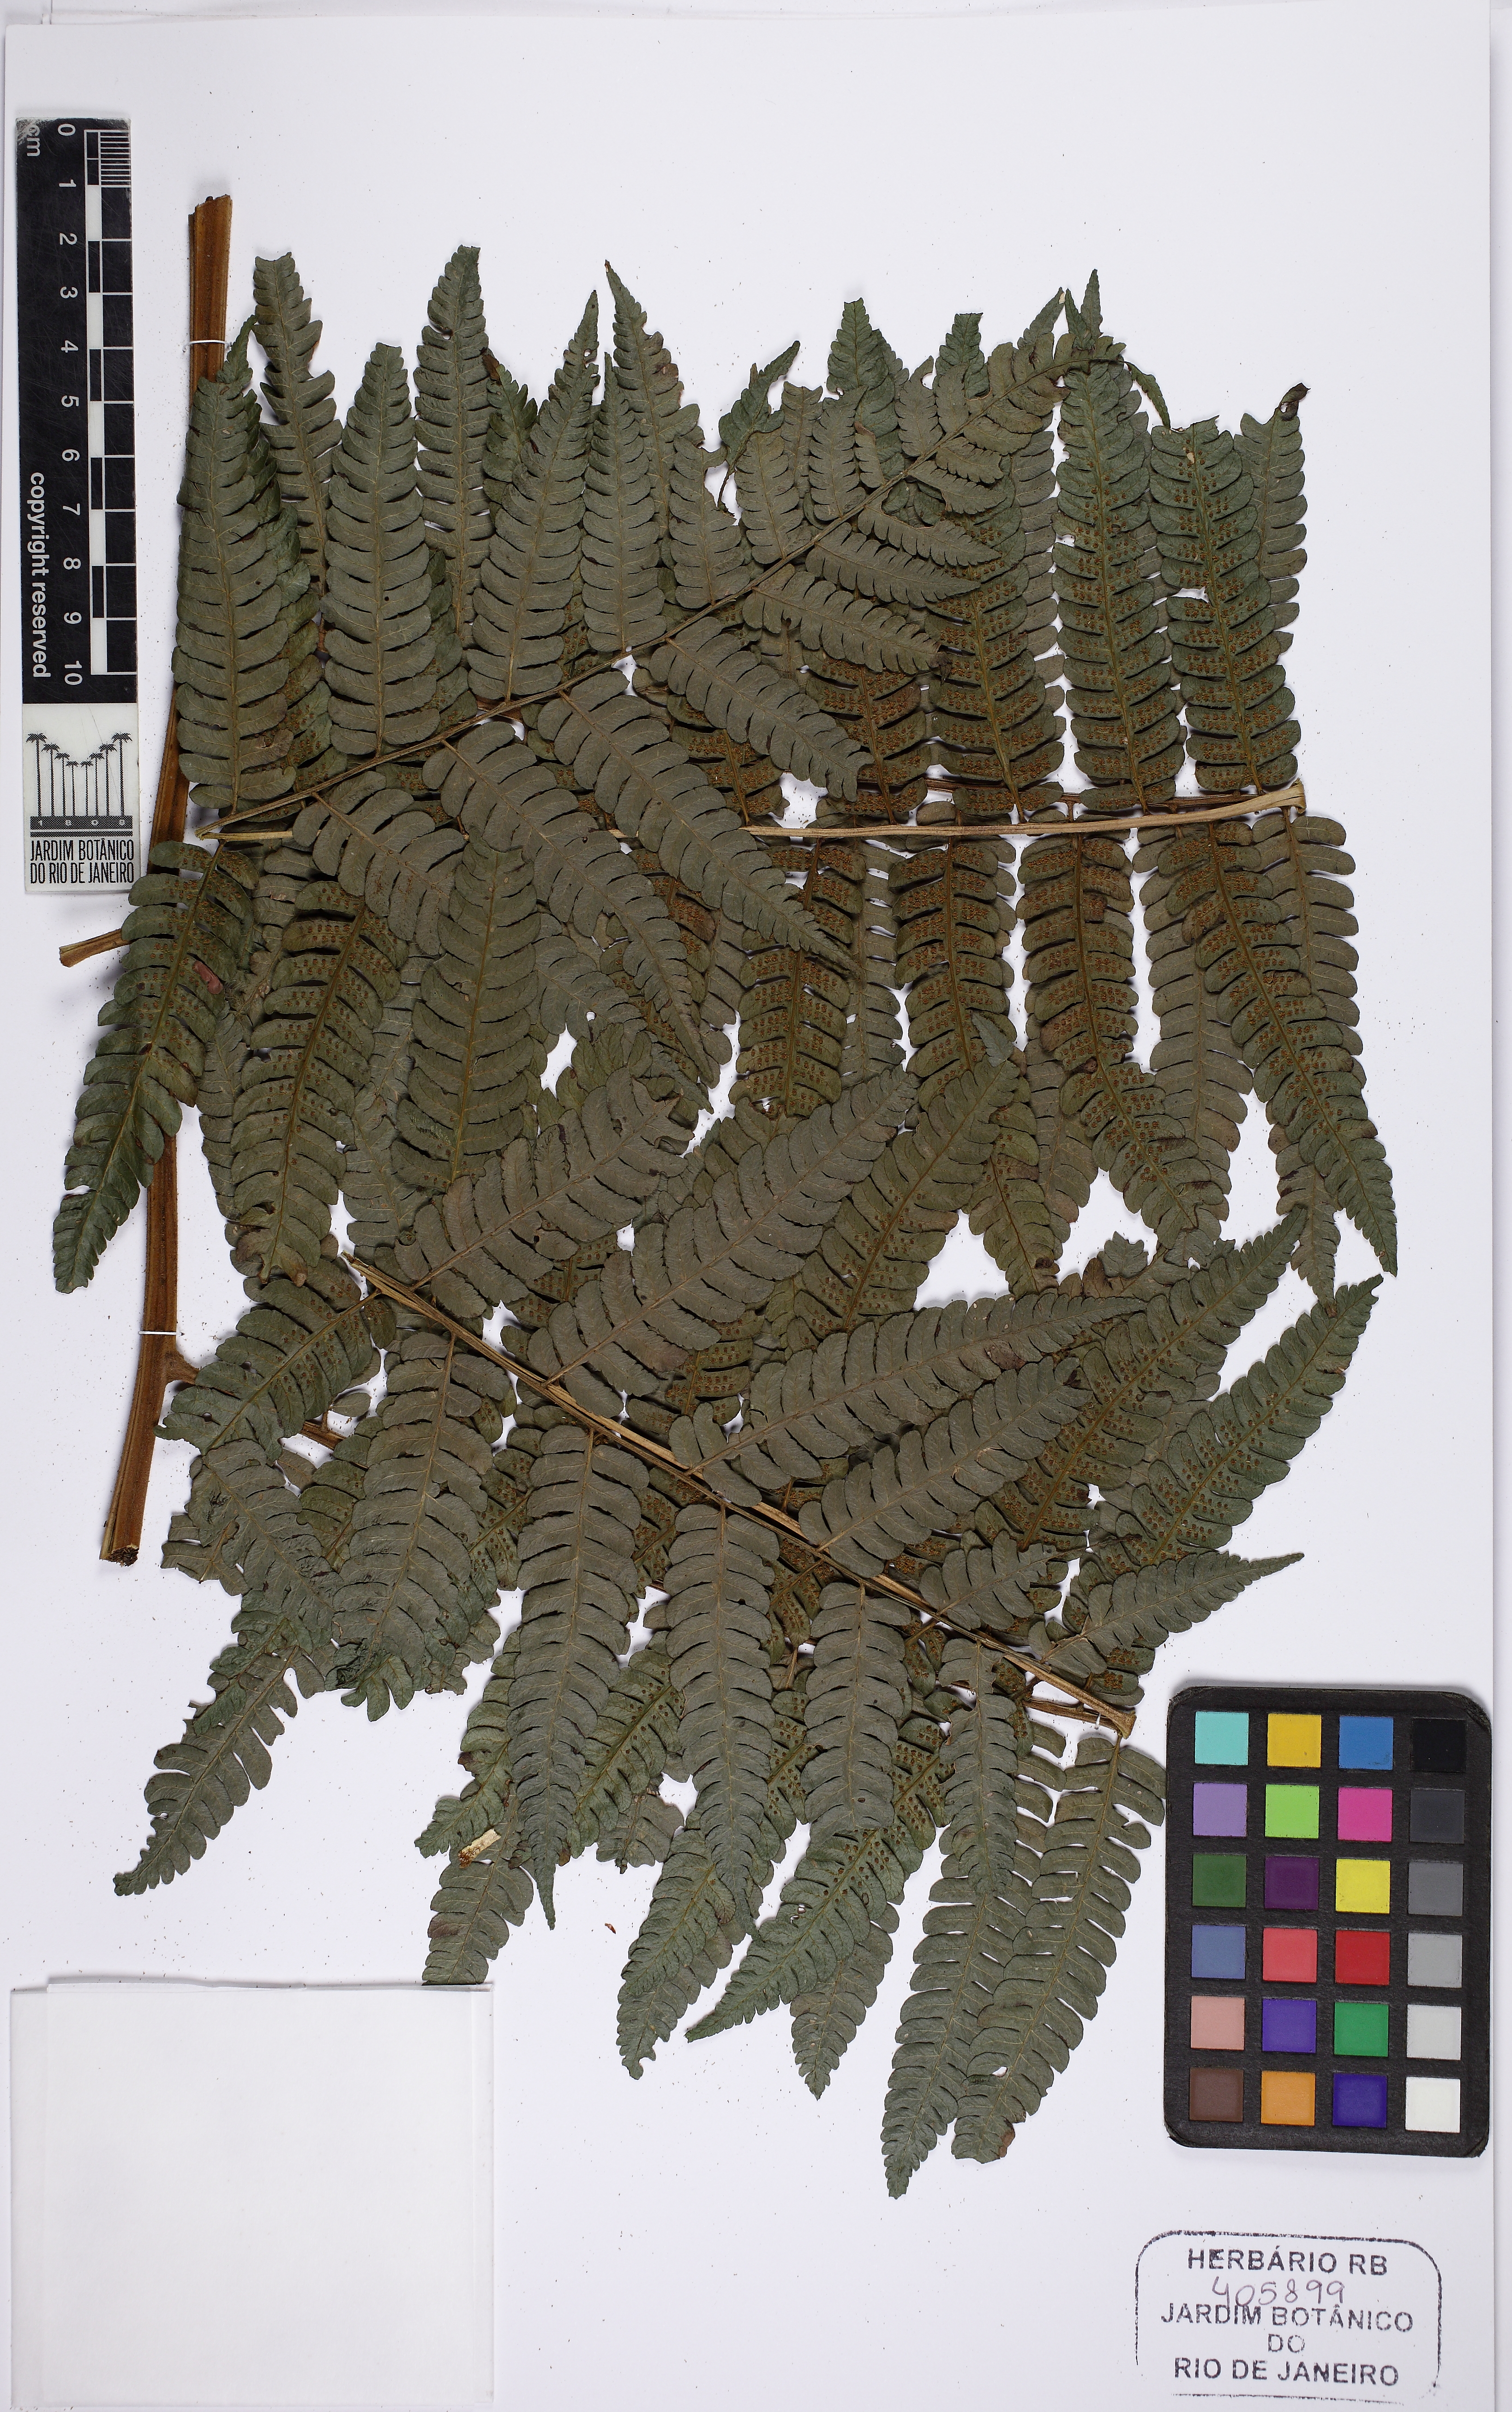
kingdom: Plantae
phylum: Tracheophyta
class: Polypodiopsida
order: Cyatheales
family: Cyatheaceae
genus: Cyathea
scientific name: Cyathea phalerata
